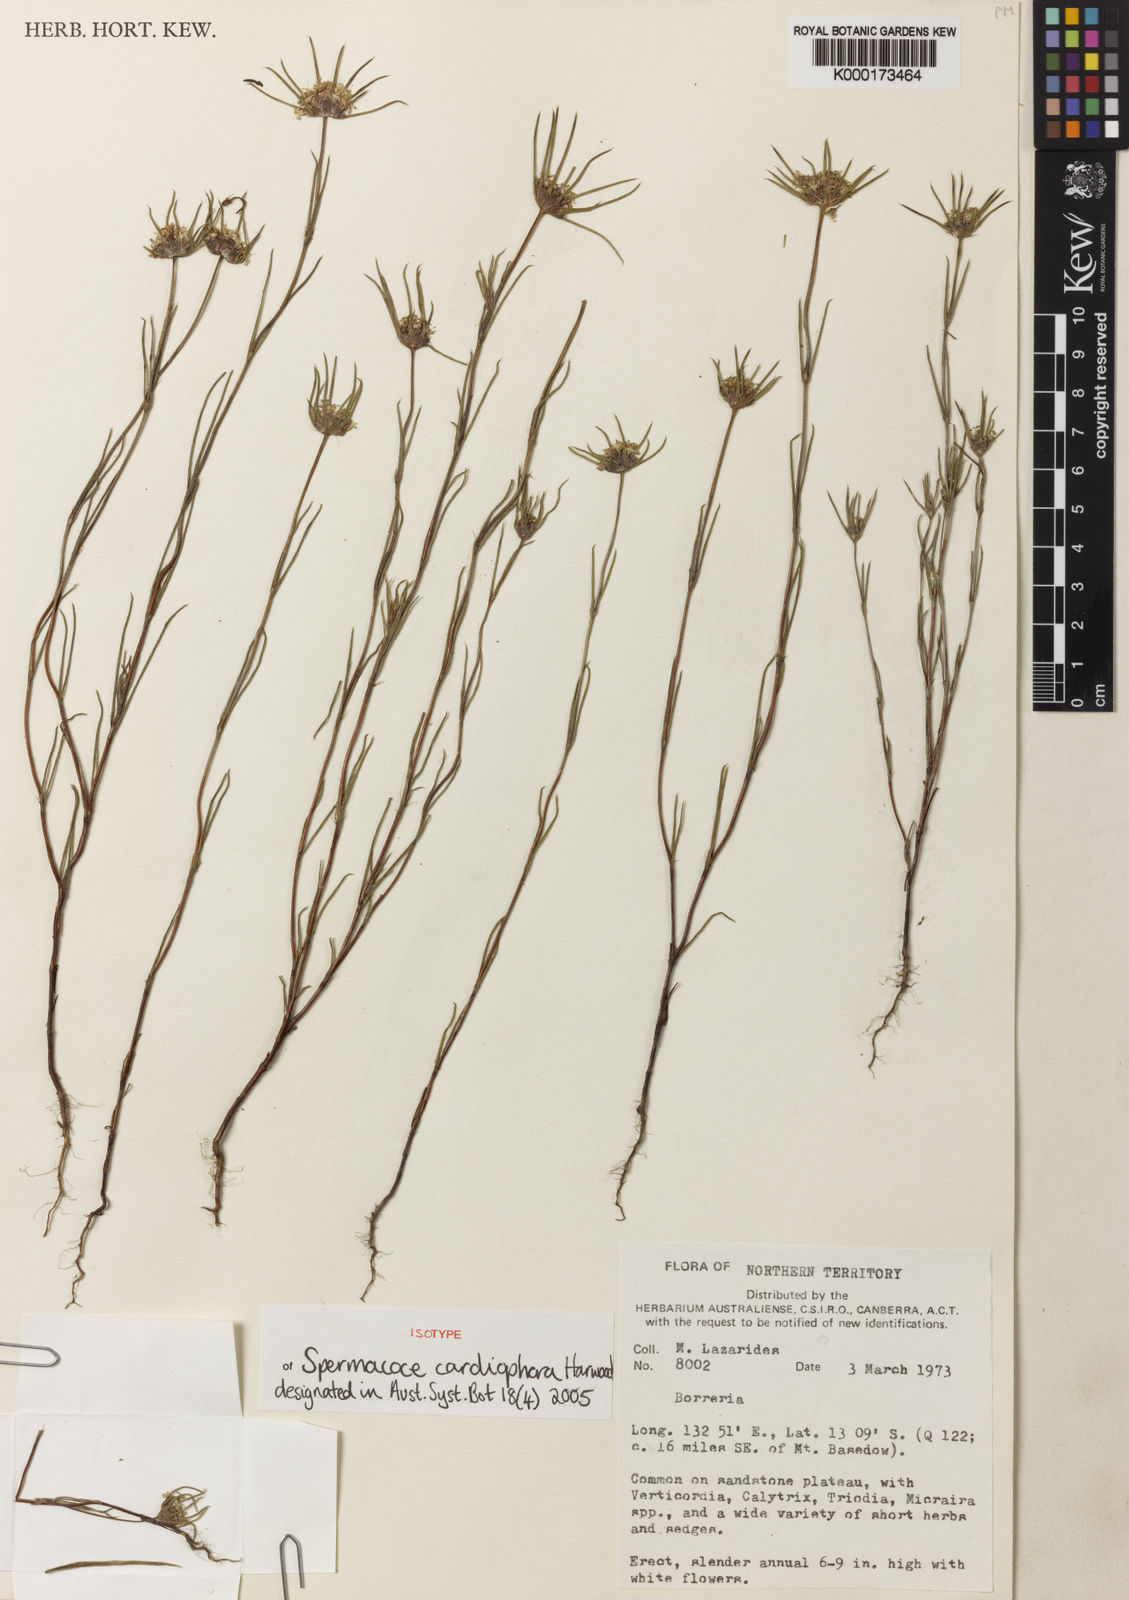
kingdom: Plantae
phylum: Tracheophyta
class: Magnoliopsida
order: Gentianales
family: Rubiaceae
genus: Spermacoce
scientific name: Spermacoce cardiophora
